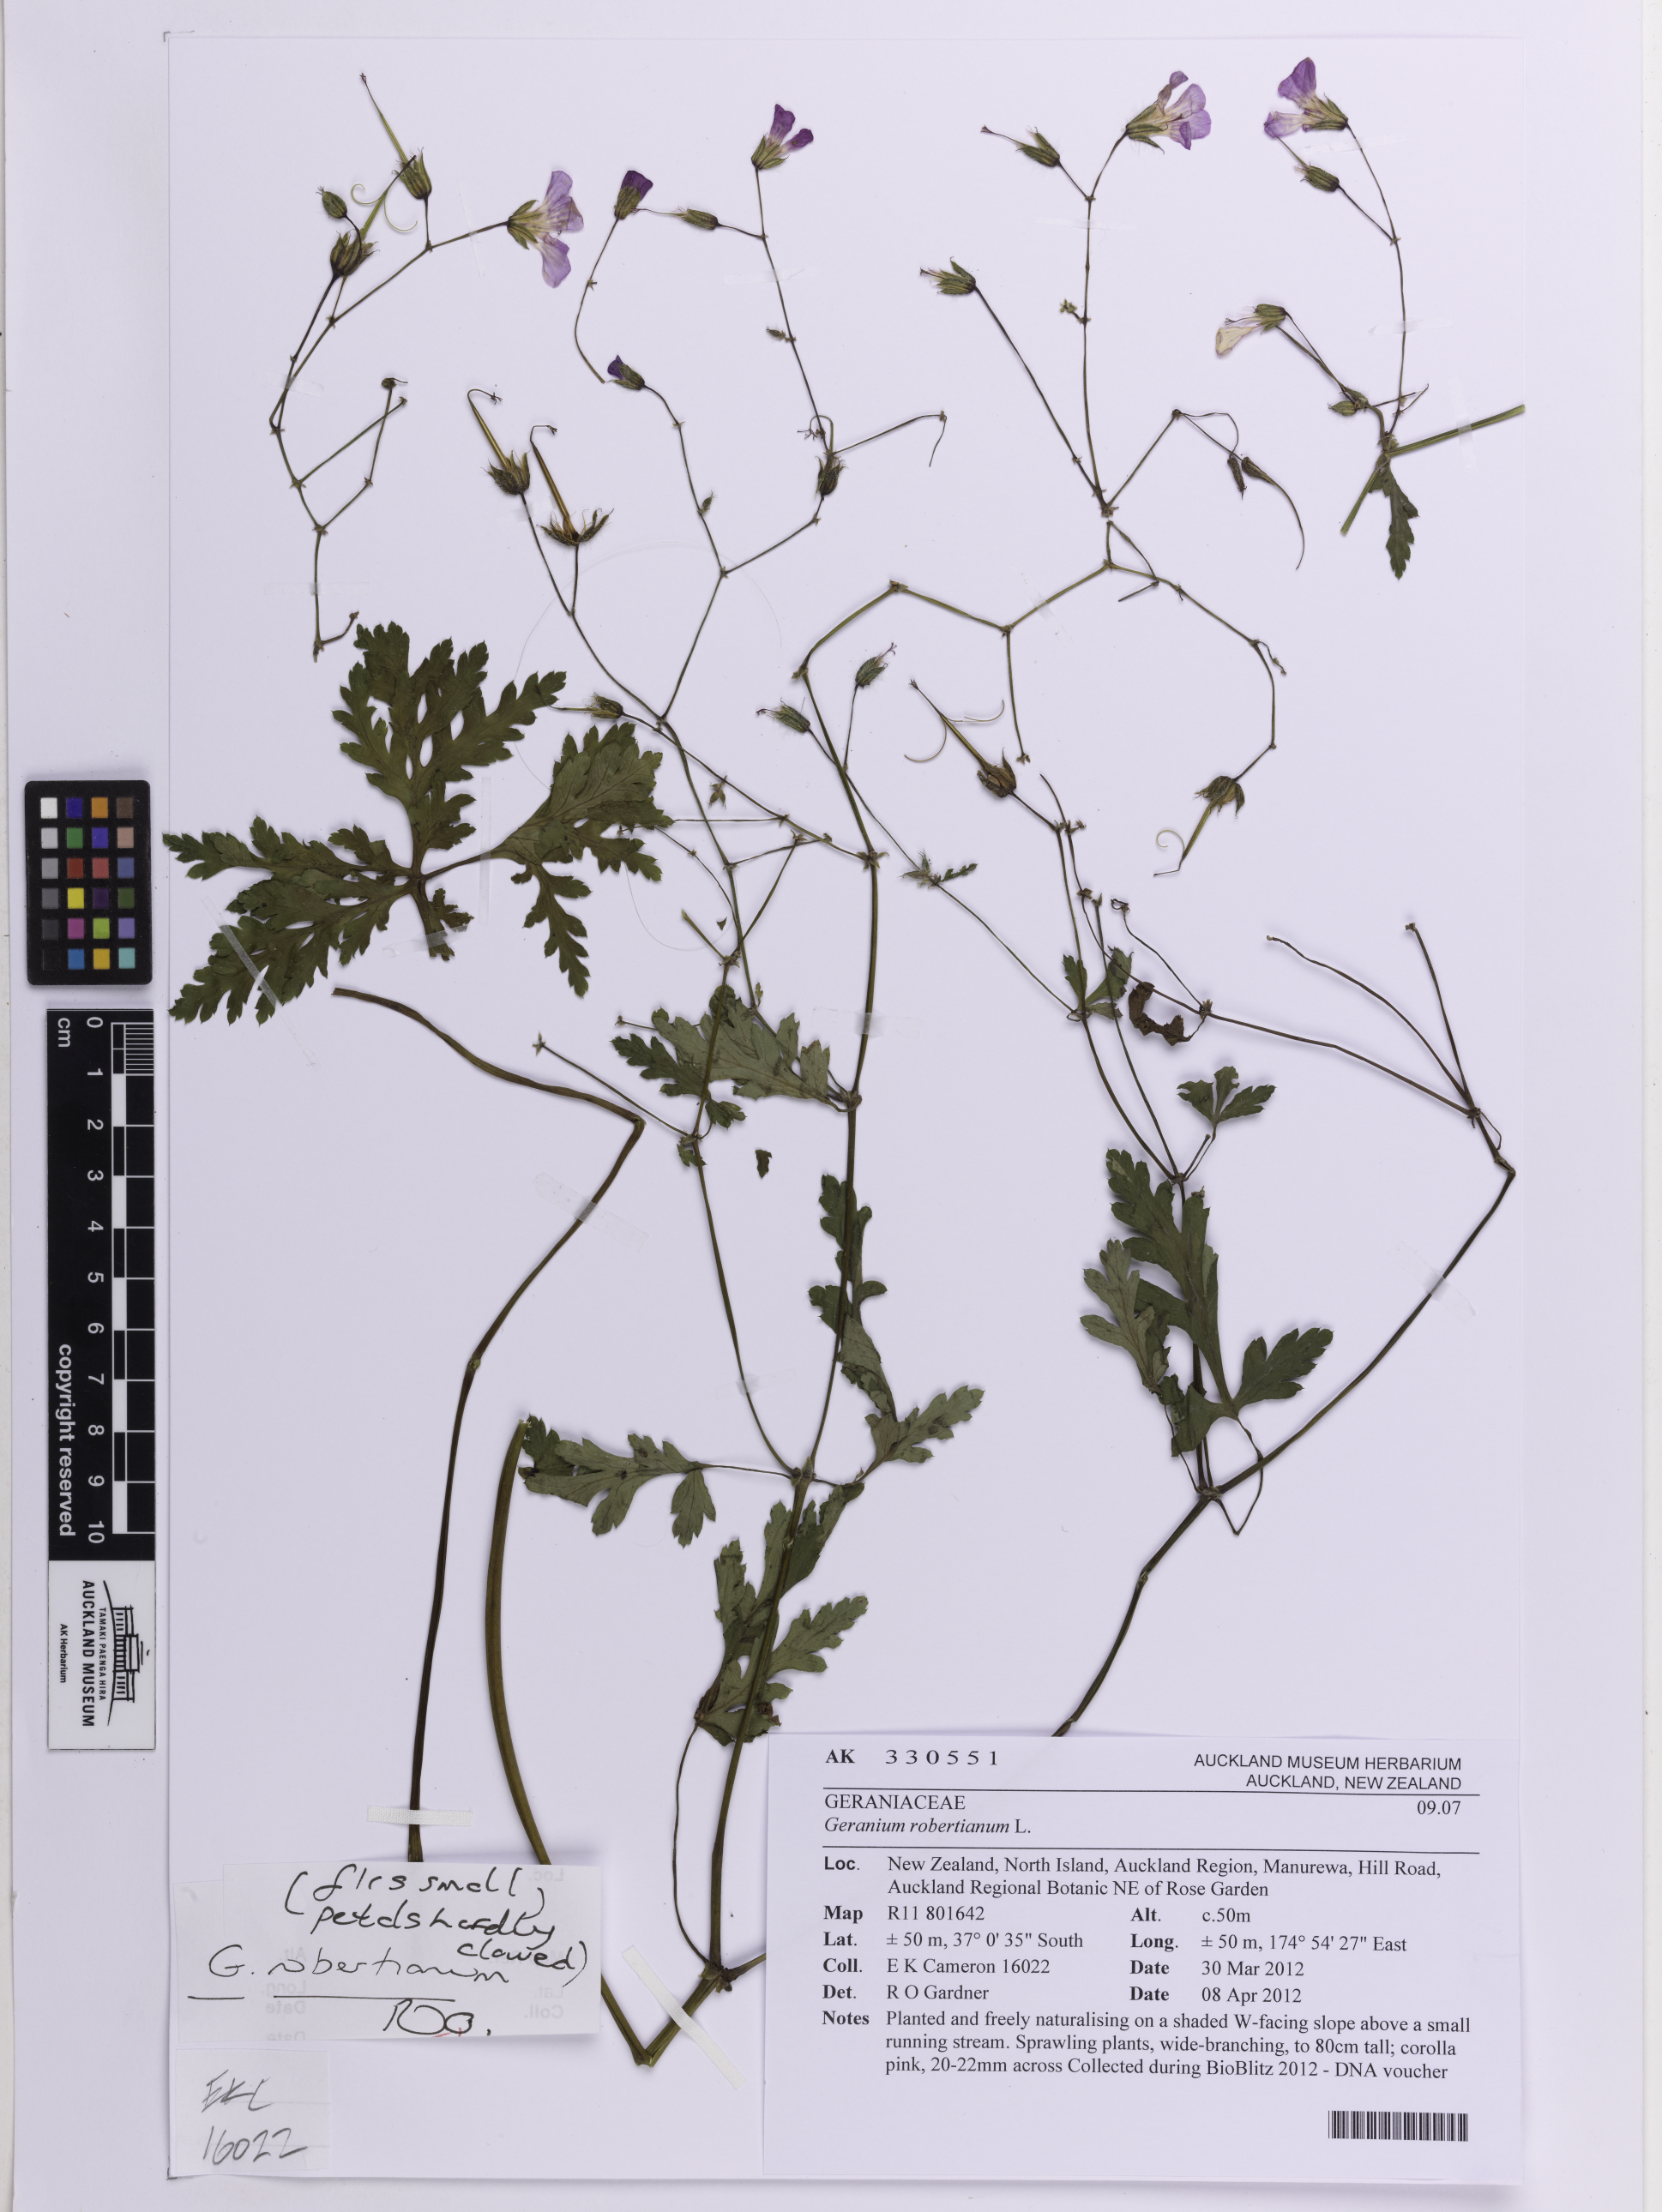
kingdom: Plantae
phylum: Tracheophyta
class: Magnoliopsida
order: Geraniales
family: Geraniaceae
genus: Geranium
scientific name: Geranium robertianum
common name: Herb-robert
